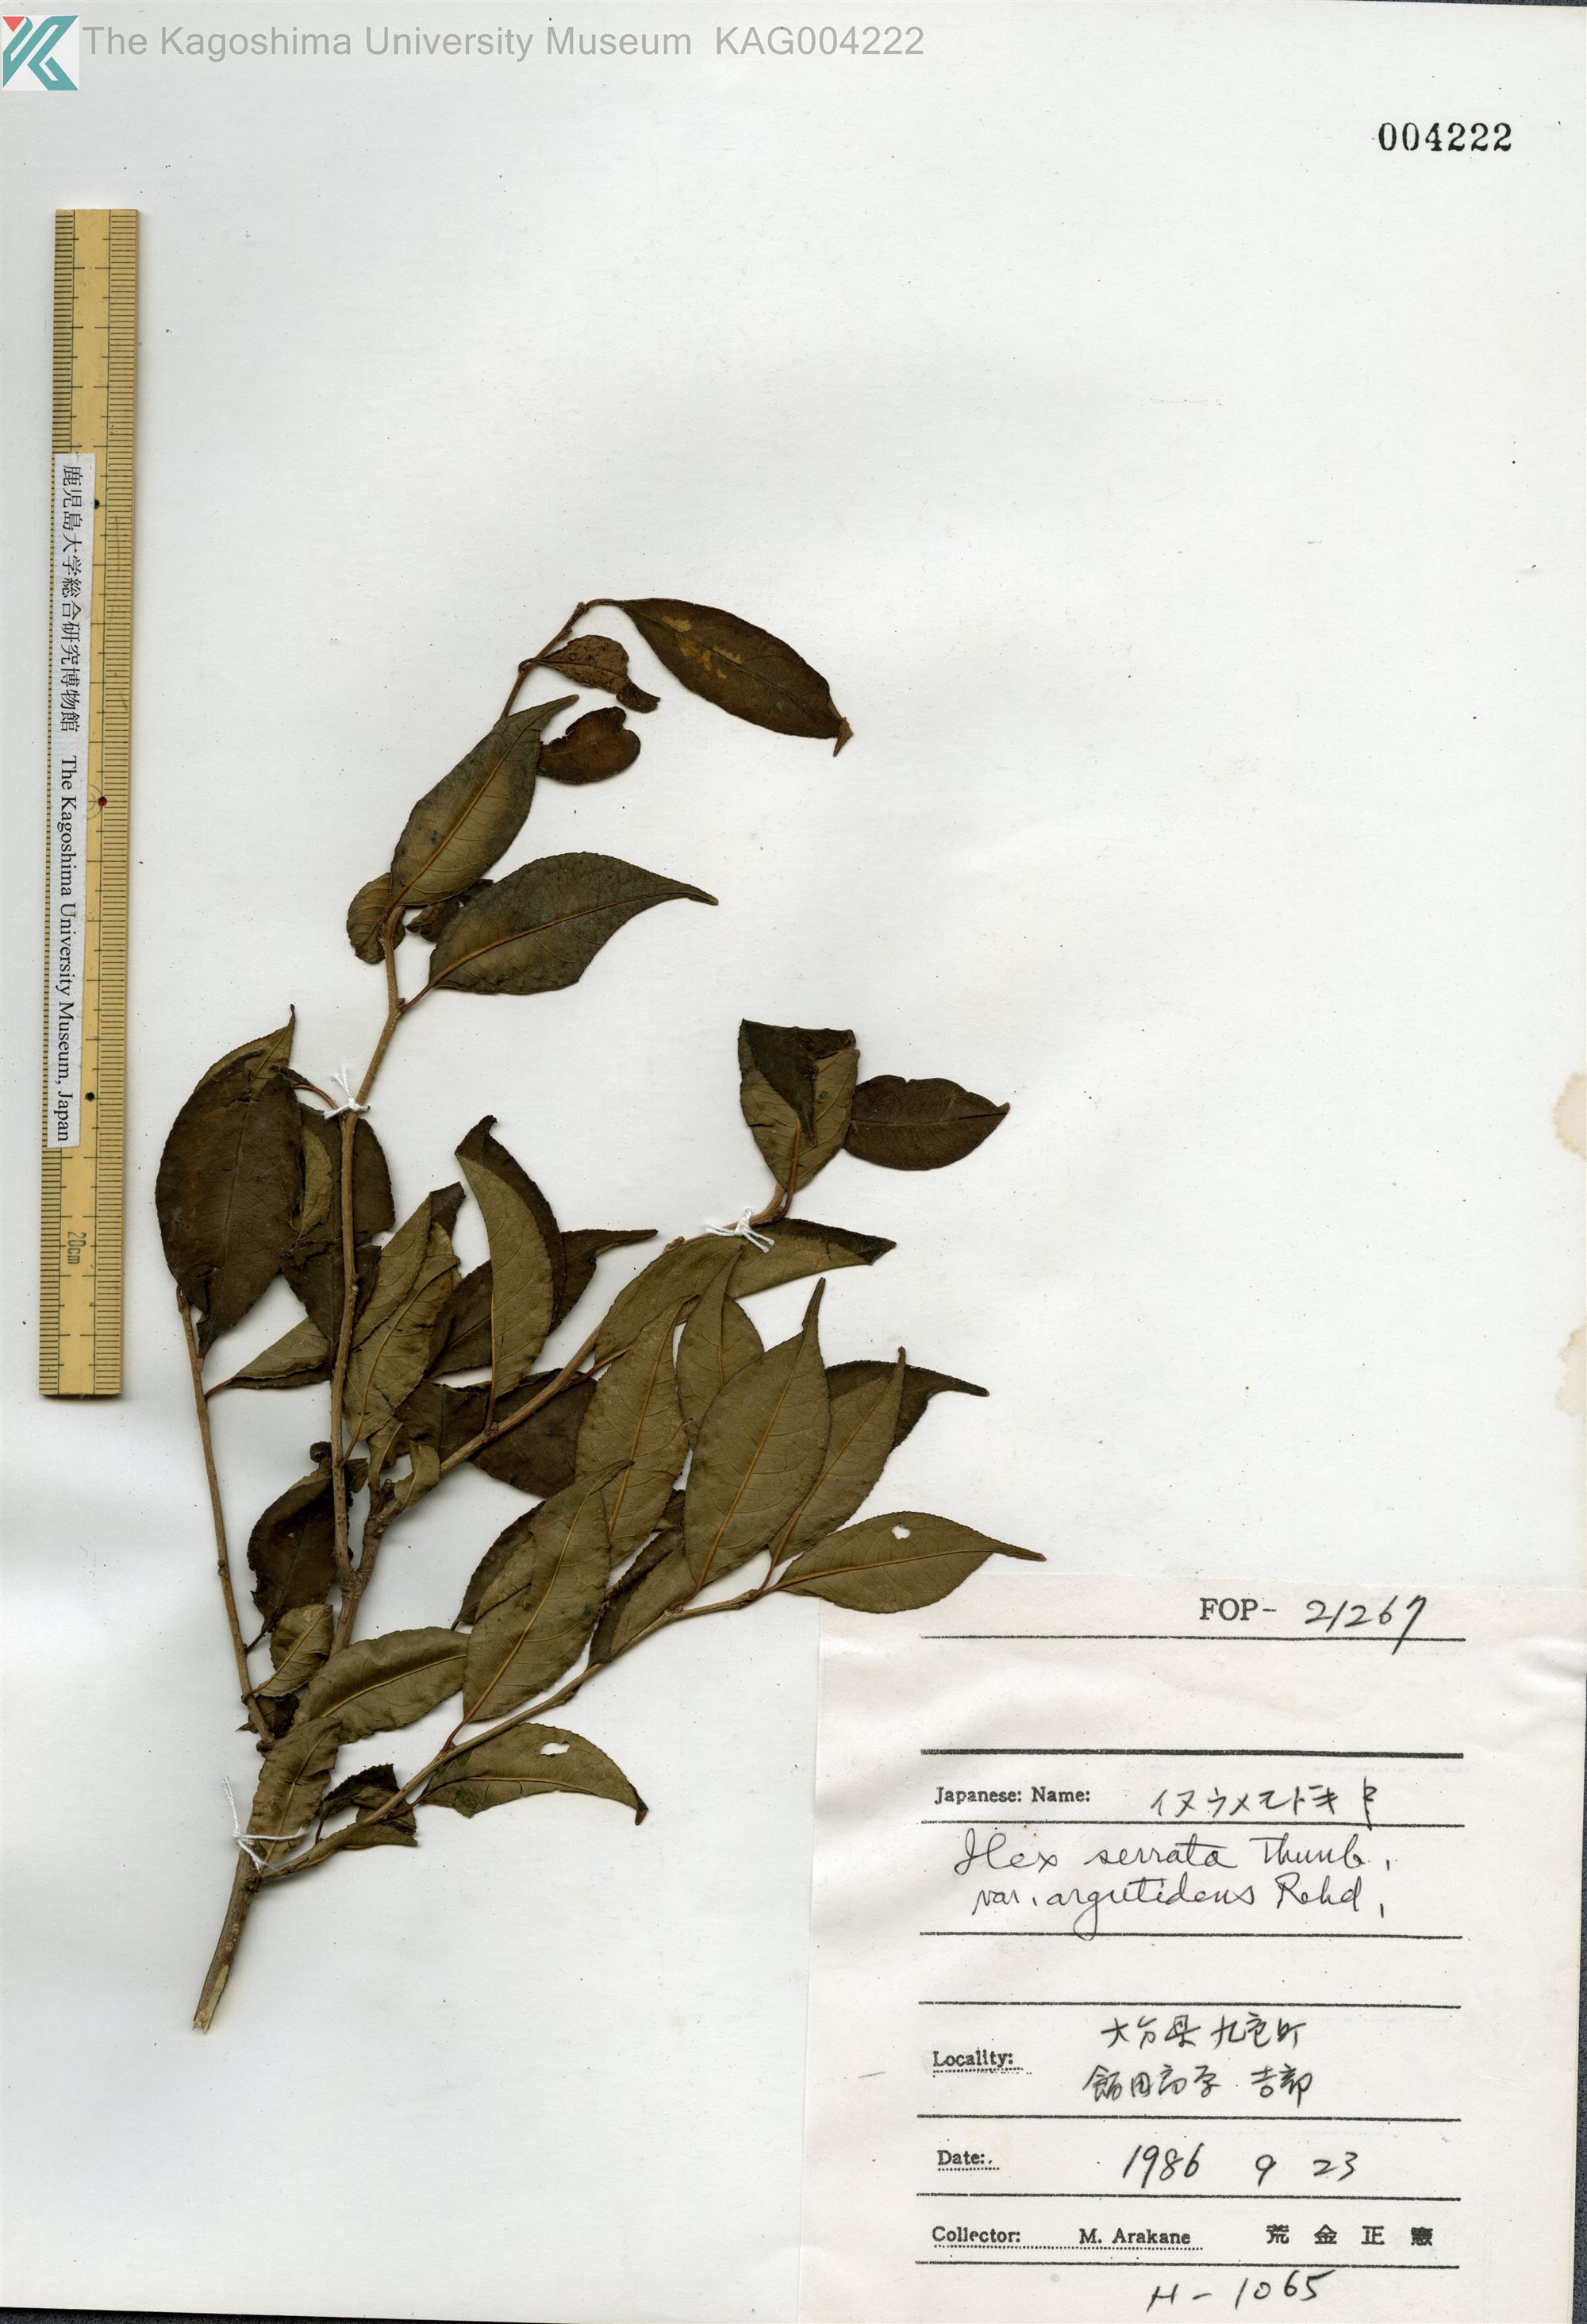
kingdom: Plantae
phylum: Tracheophyta
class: Magnoliopsida
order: Aquifoliales
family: Aquifoliaceae
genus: Ilex
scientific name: Ilex serrata
